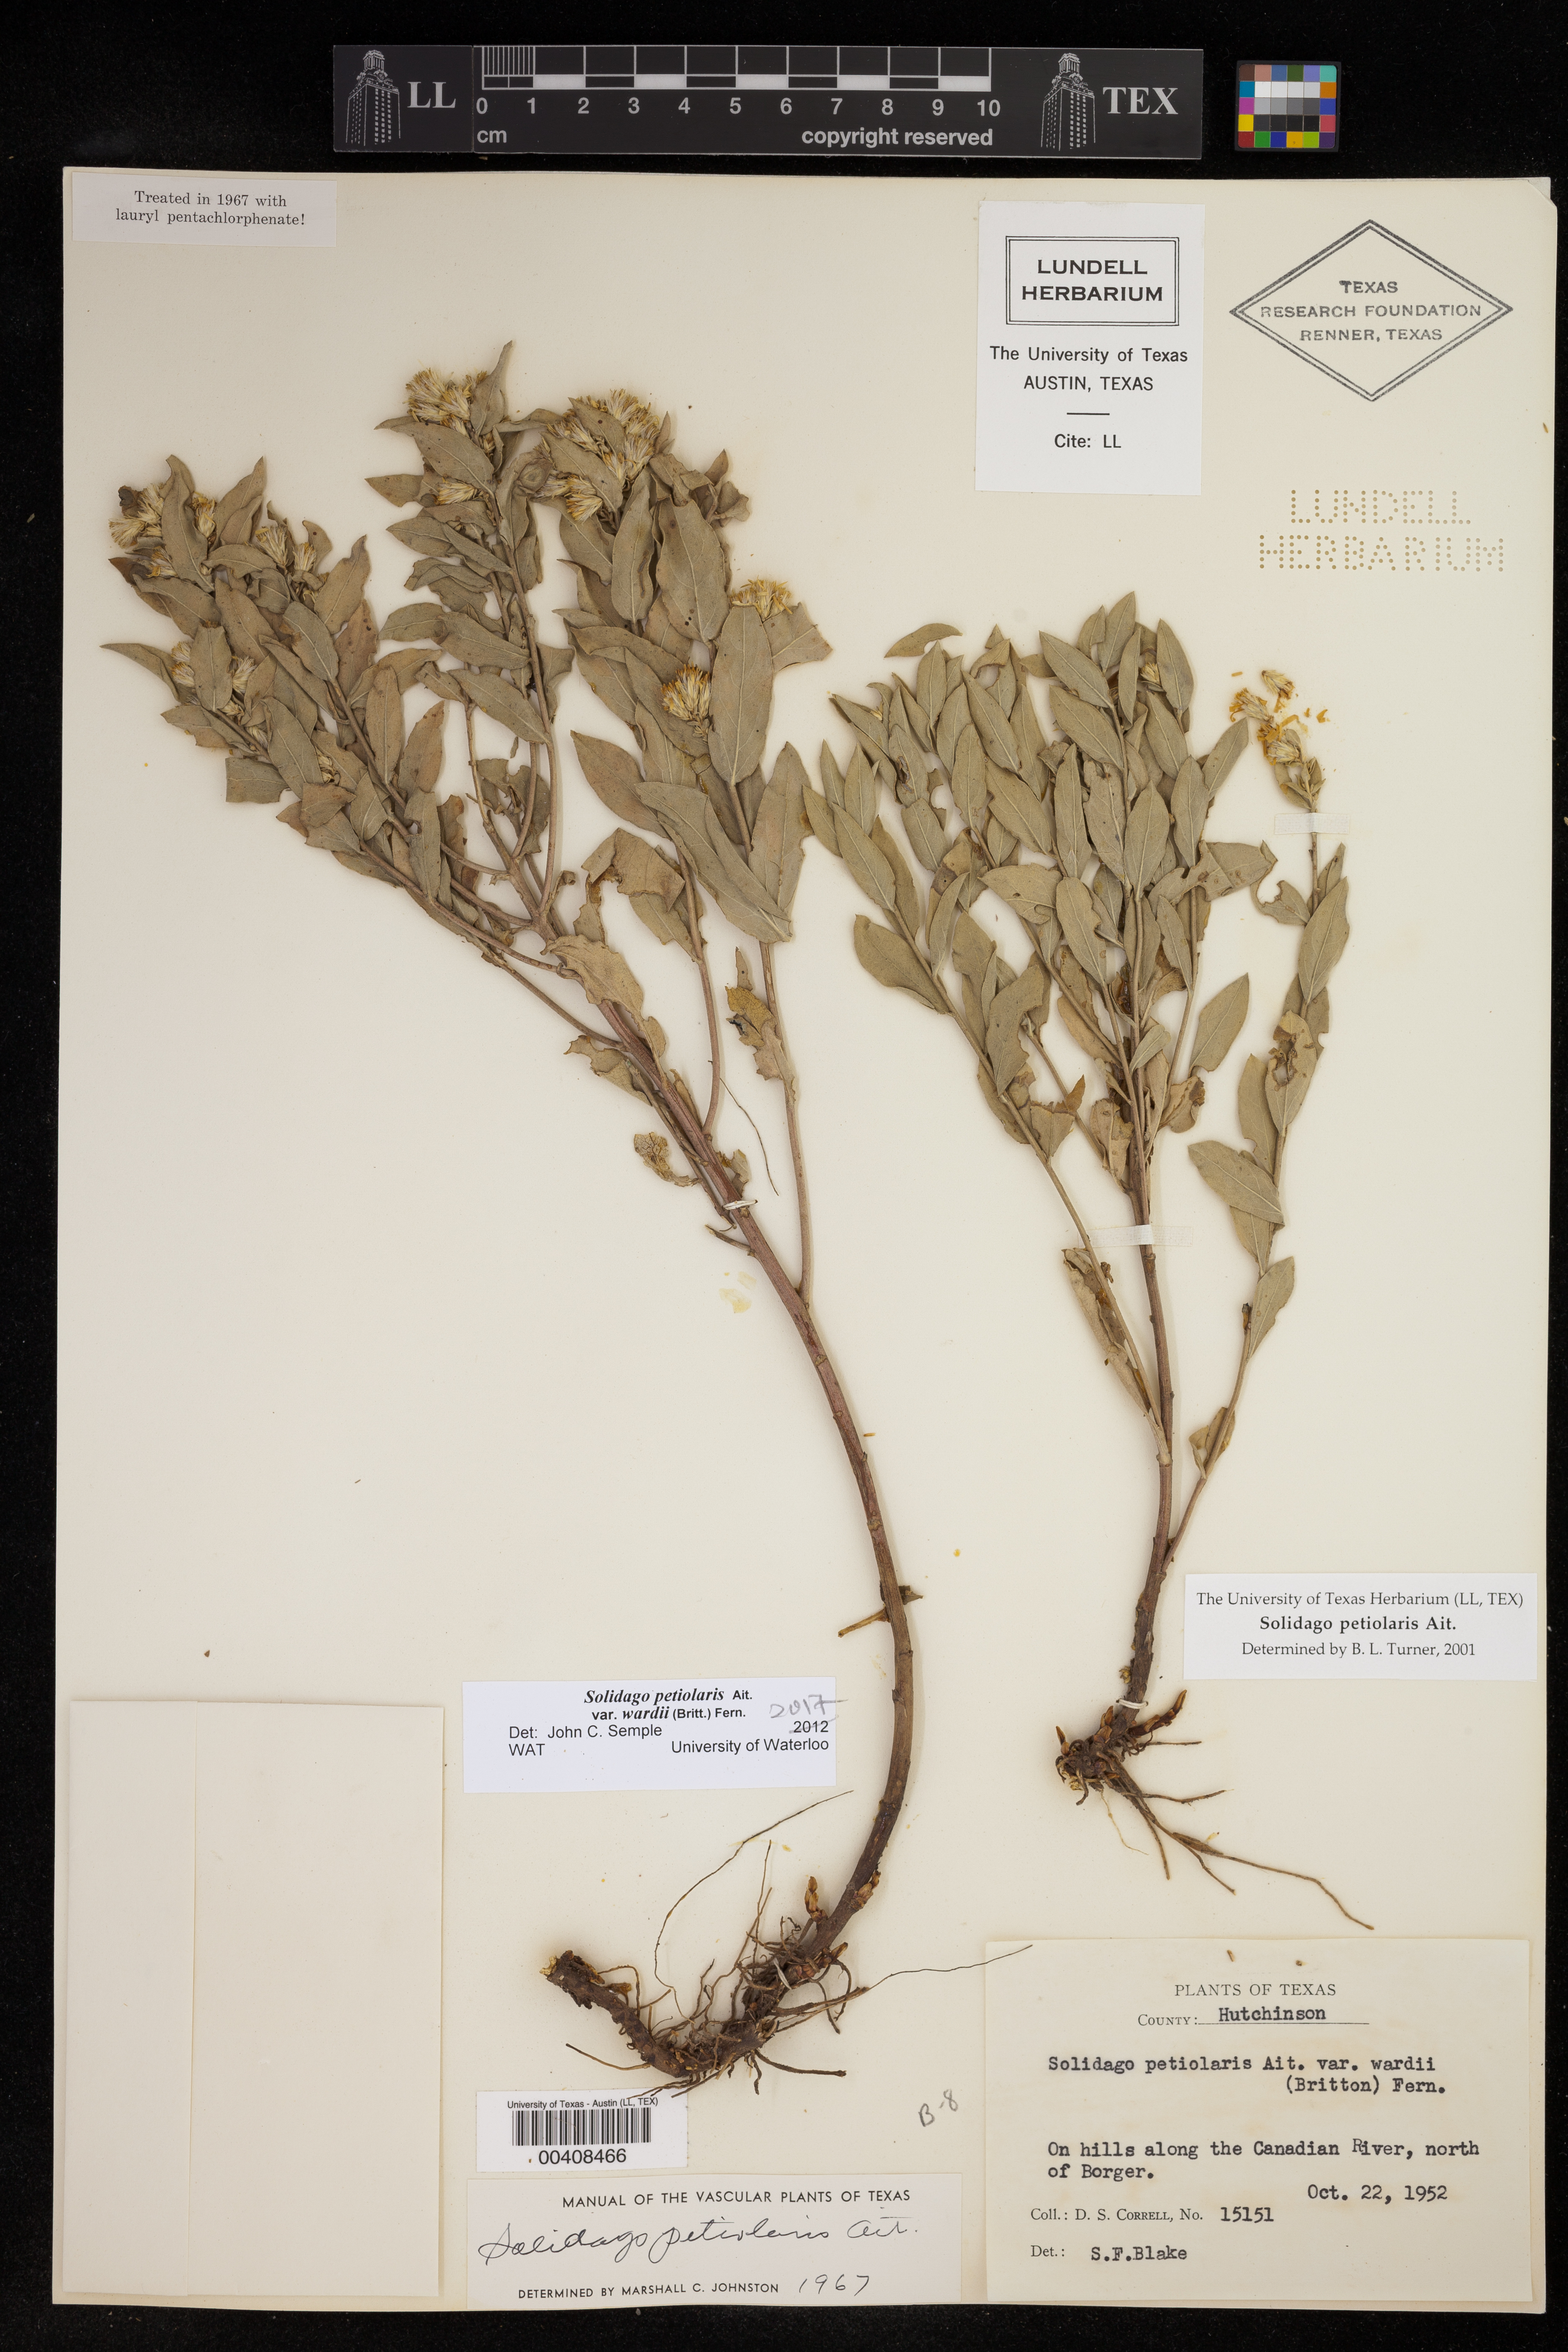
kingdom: Plantae
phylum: Tracheophyta
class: Magnoliopsida
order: Asterales
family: Asteraceae
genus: Solidago
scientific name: Solidago petiolaris
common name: Downy ragged goldenrod
